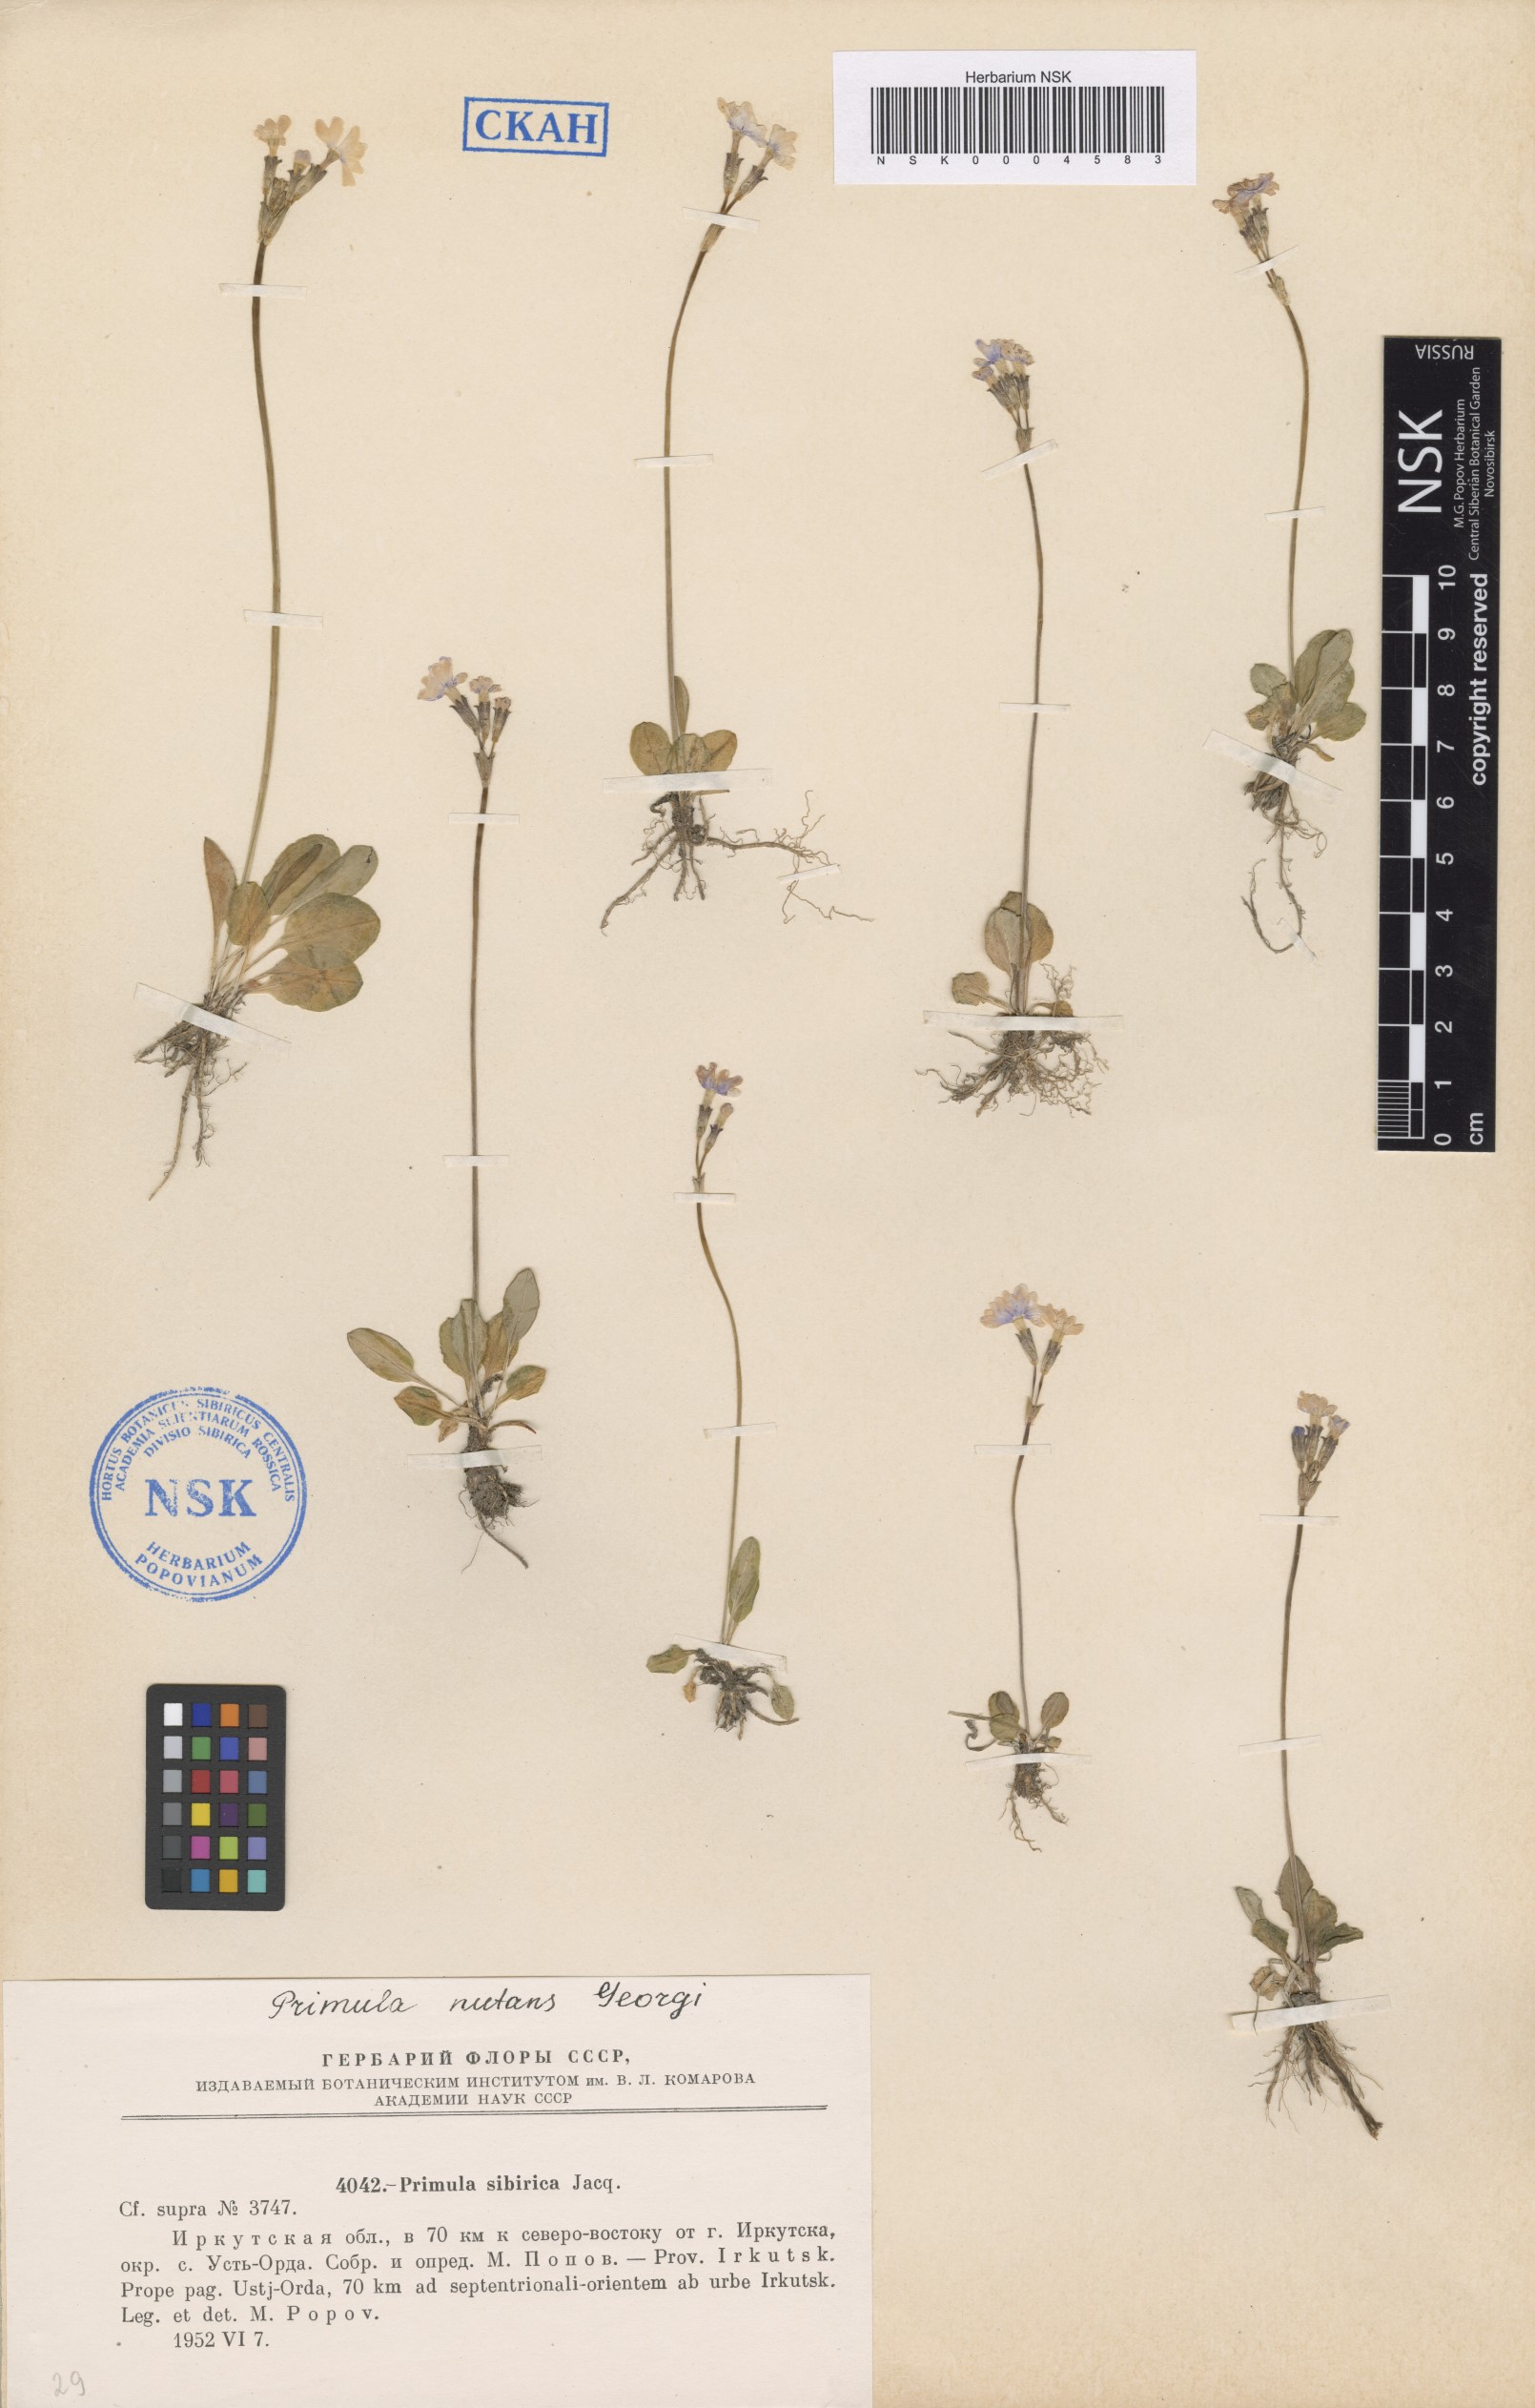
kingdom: Plantae
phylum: Tracheophyta
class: Magnoliopsida
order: Ericales
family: Primulaceae
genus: Primula
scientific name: Primula nutans
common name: Siberian primrose
